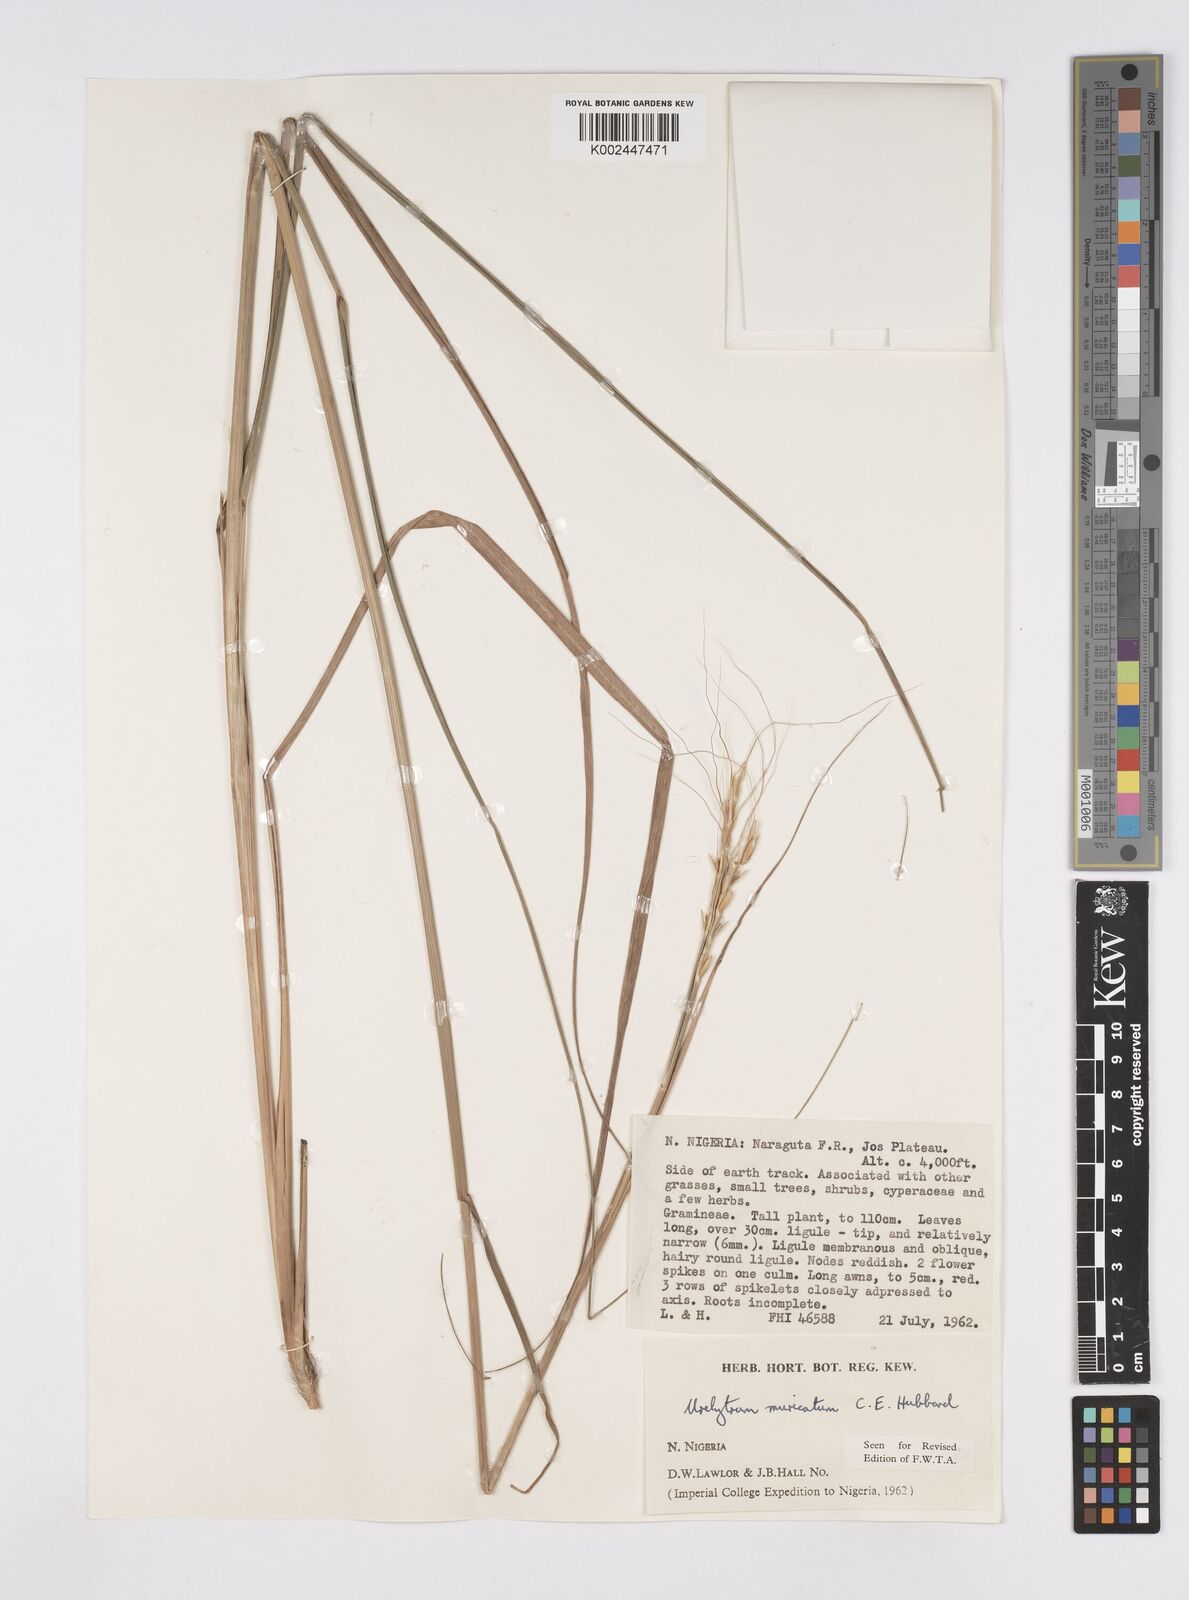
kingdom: Plantae
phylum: Tracheophyta
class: Liliopsida
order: Poales
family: Poaceae
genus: Urelytrum
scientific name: Urelytrum muricatum
